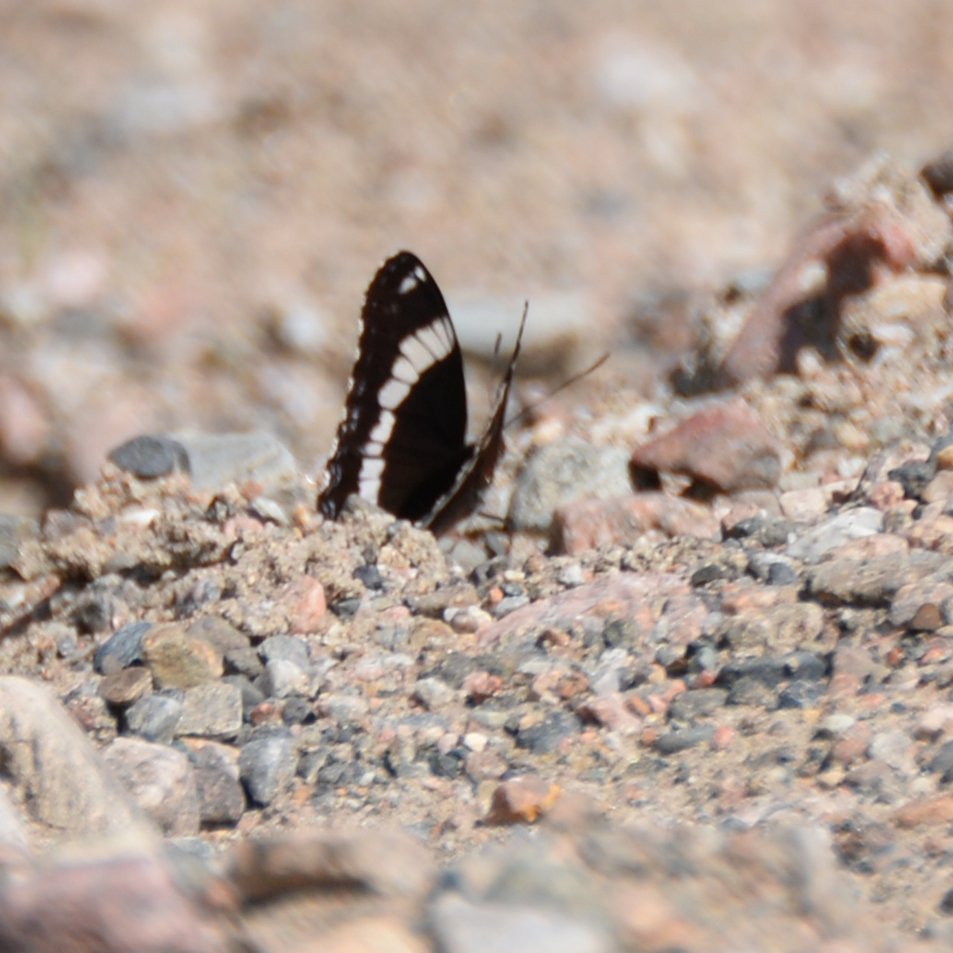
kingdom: Animalia
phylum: Arthropoda
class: Insecta
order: Lepidoptera
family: Nymphalidae
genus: Limenitis
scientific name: Limenitis arthemis
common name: Red-spotted Admiral
